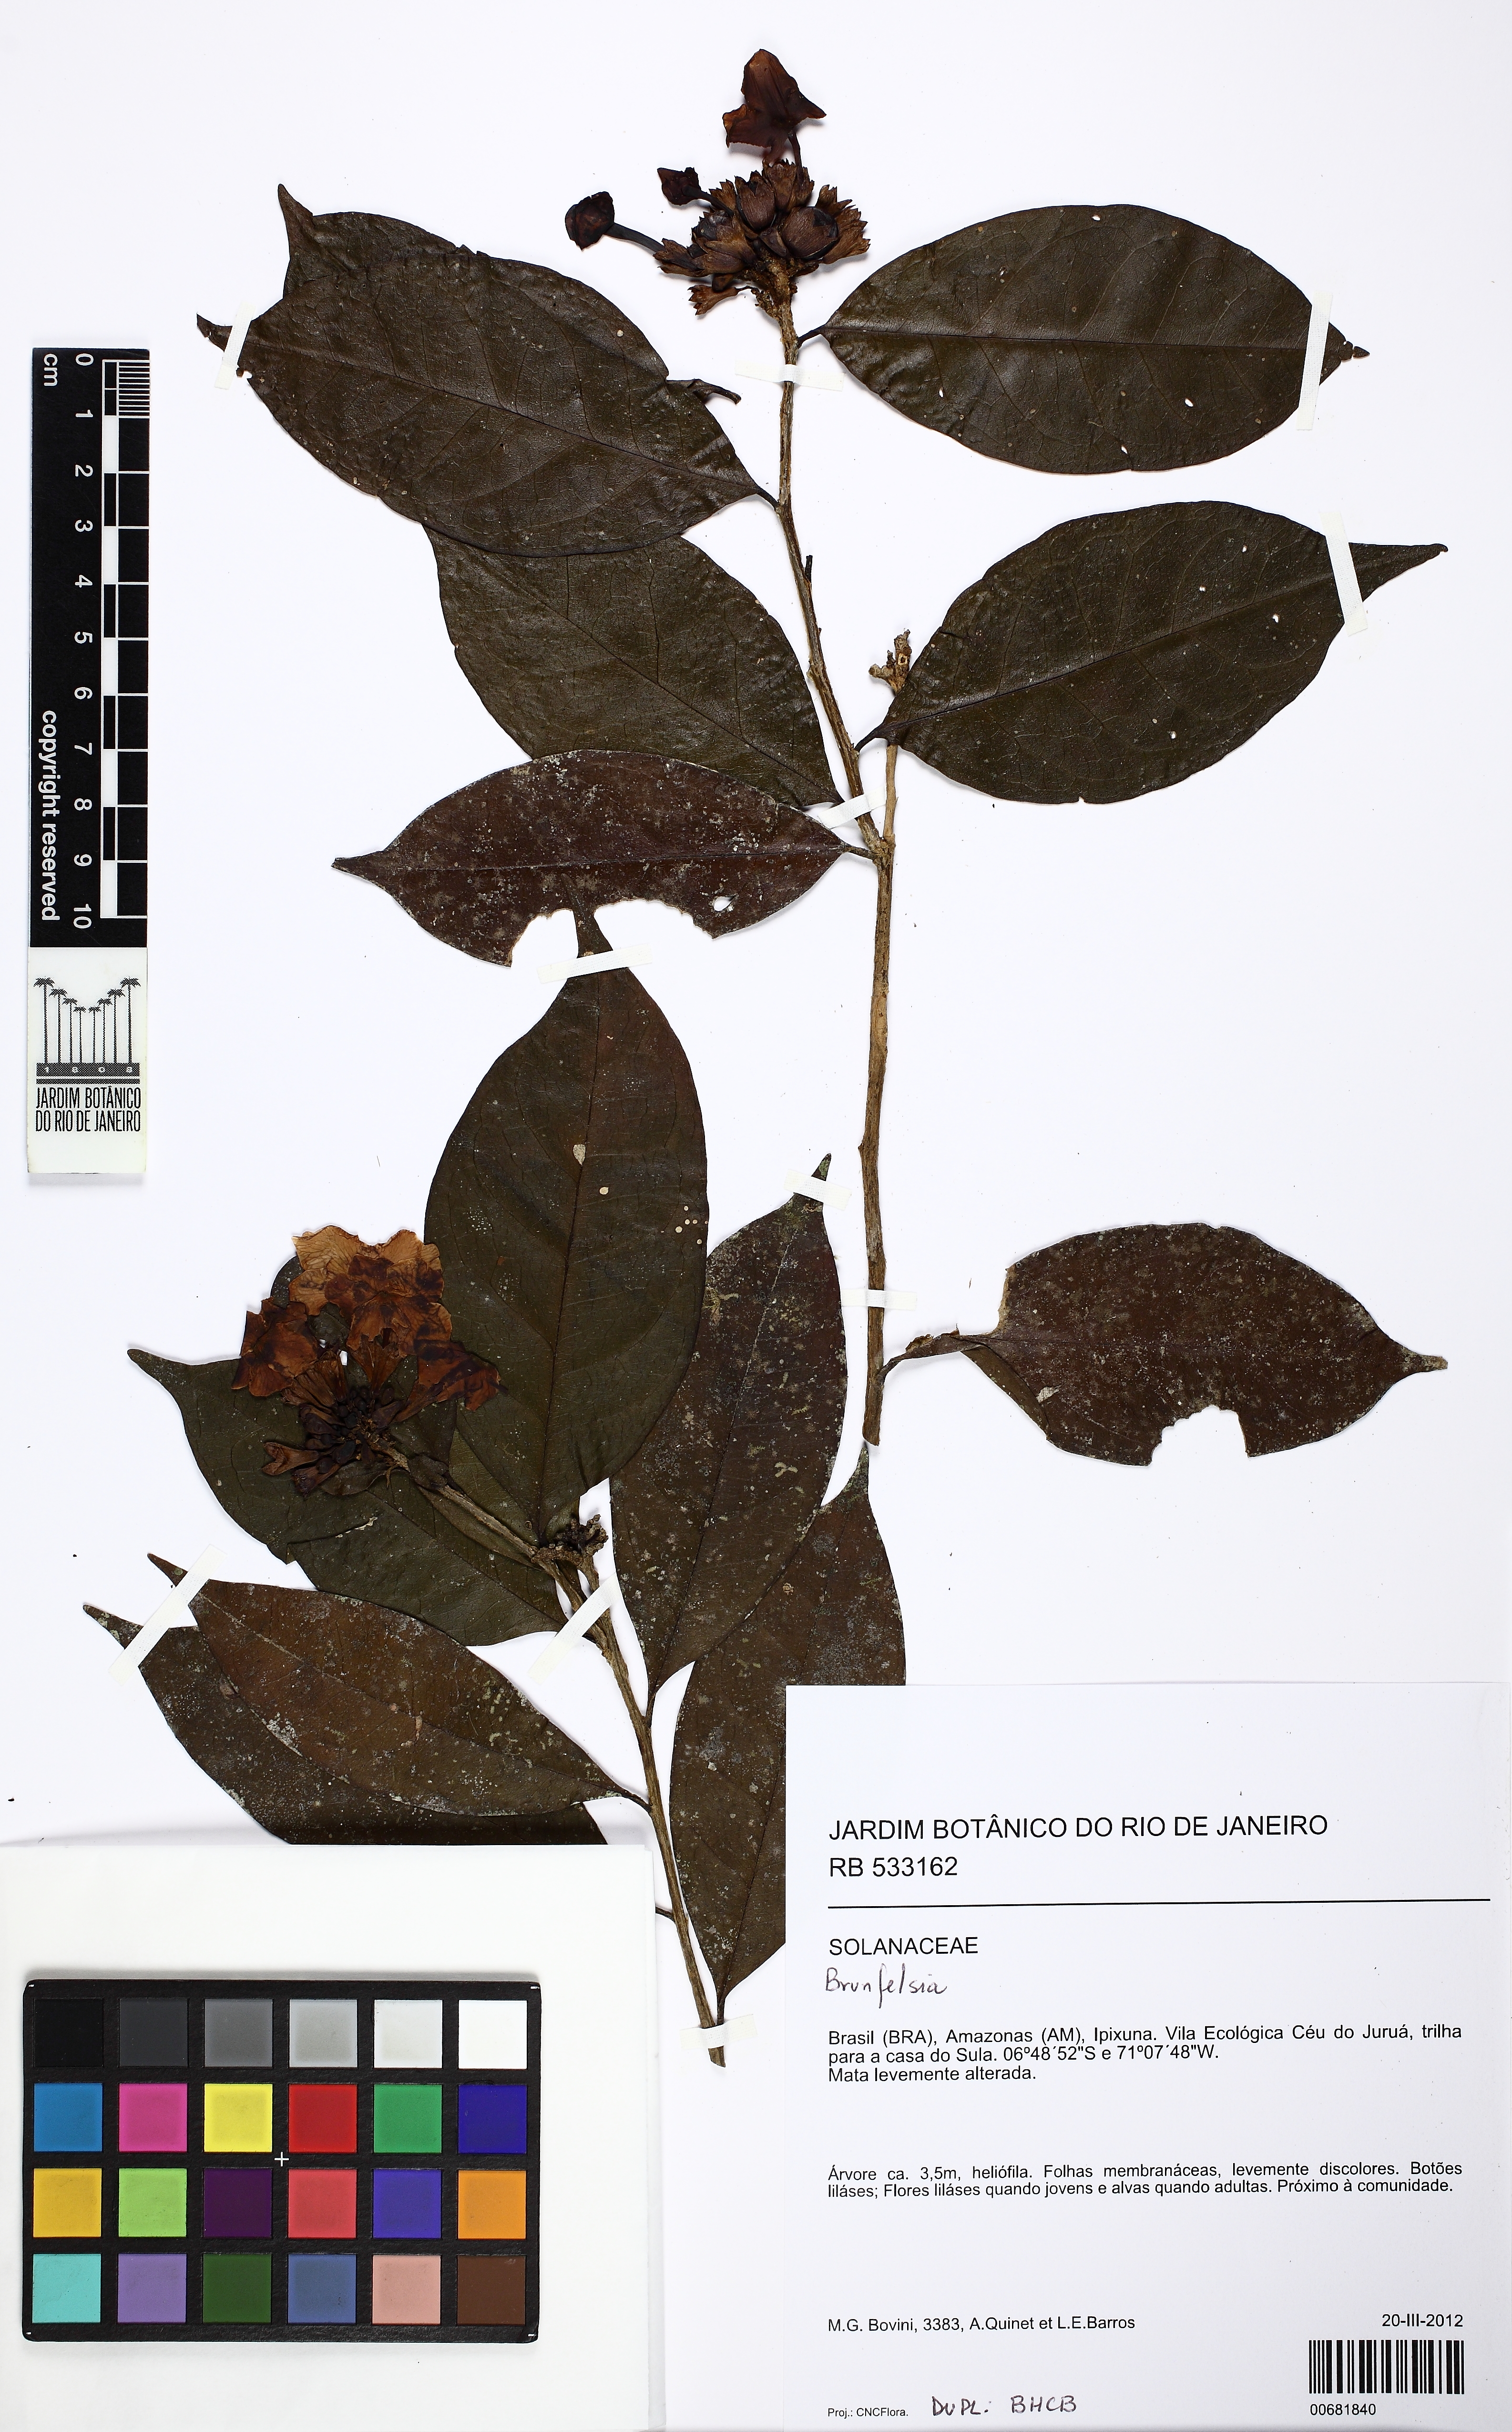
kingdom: Plantae
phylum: Tracheophyta
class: Magnoliopsida
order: Solanales
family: Solanaceae
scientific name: Solanaceae
